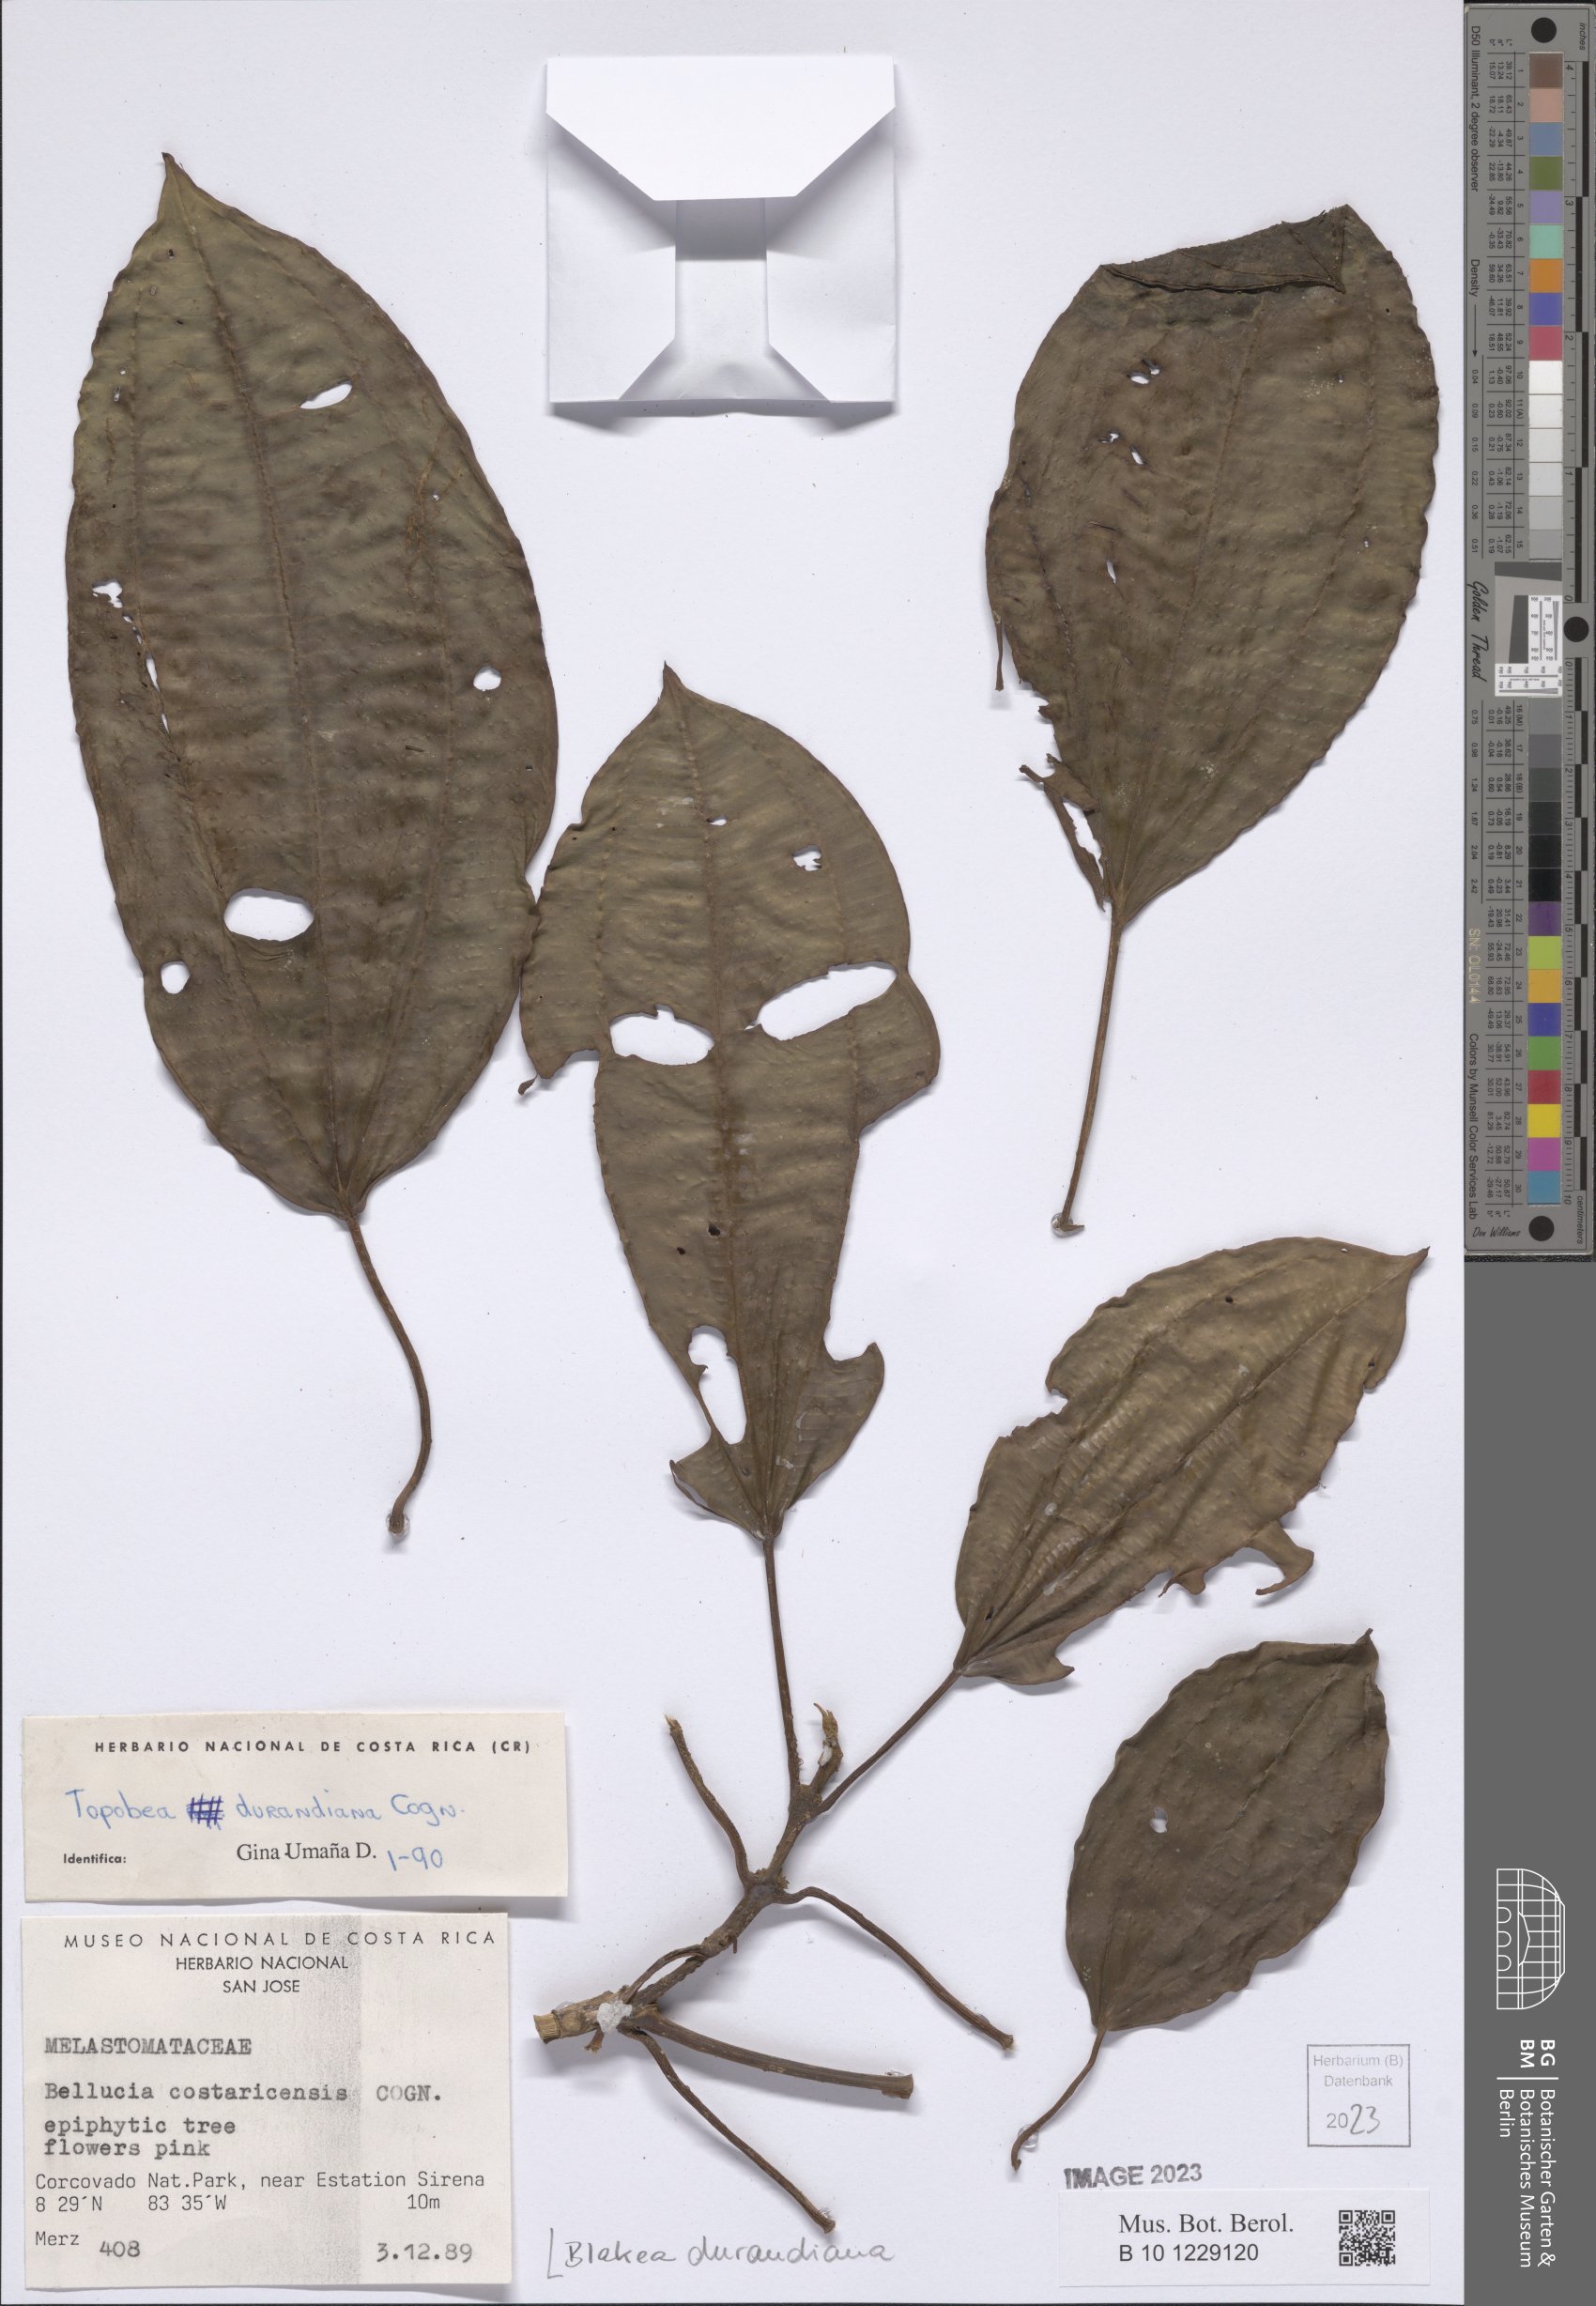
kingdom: Plantae
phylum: Tracheophyta
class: Magnoliopsida
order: Myrtales
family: Melastomataceae
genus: Blakea
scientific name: Blakea durandiana
